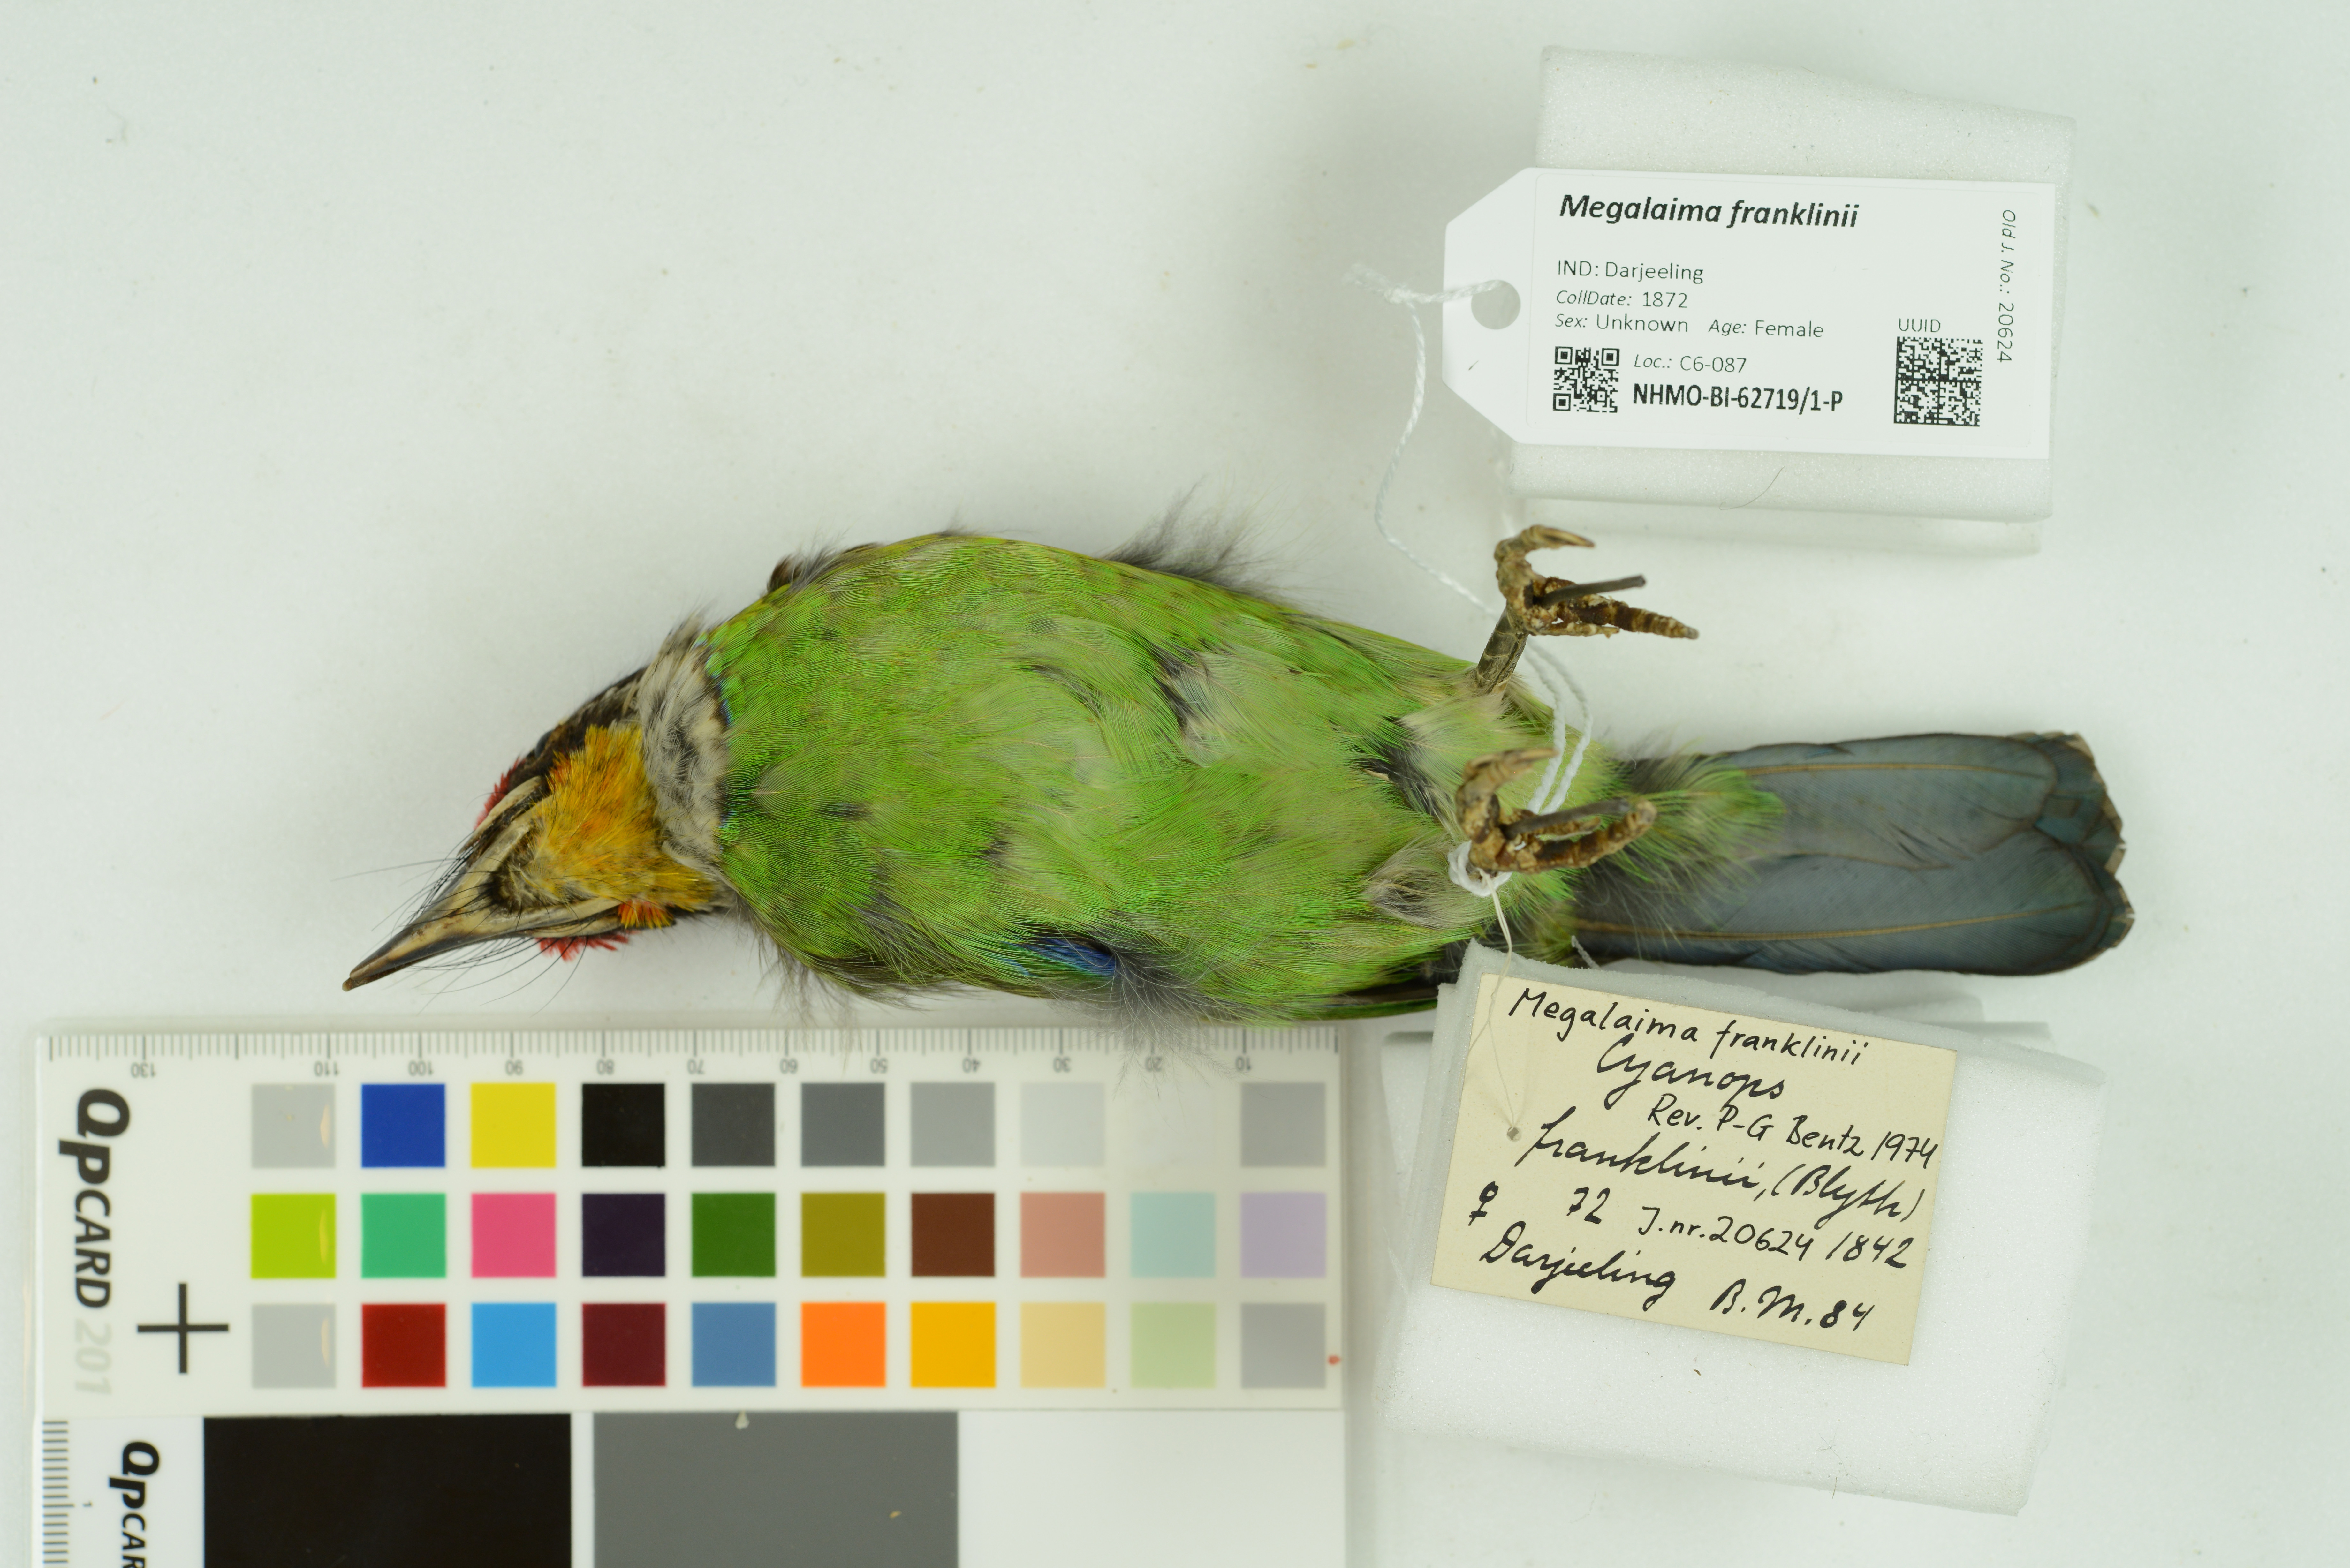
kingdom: Animalia
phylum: Chordata
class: Aves
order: Piciformes
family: Megalaimidae
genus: Psilopogon
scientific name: Psilopogon franklinii
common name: Golden-throated barbet
